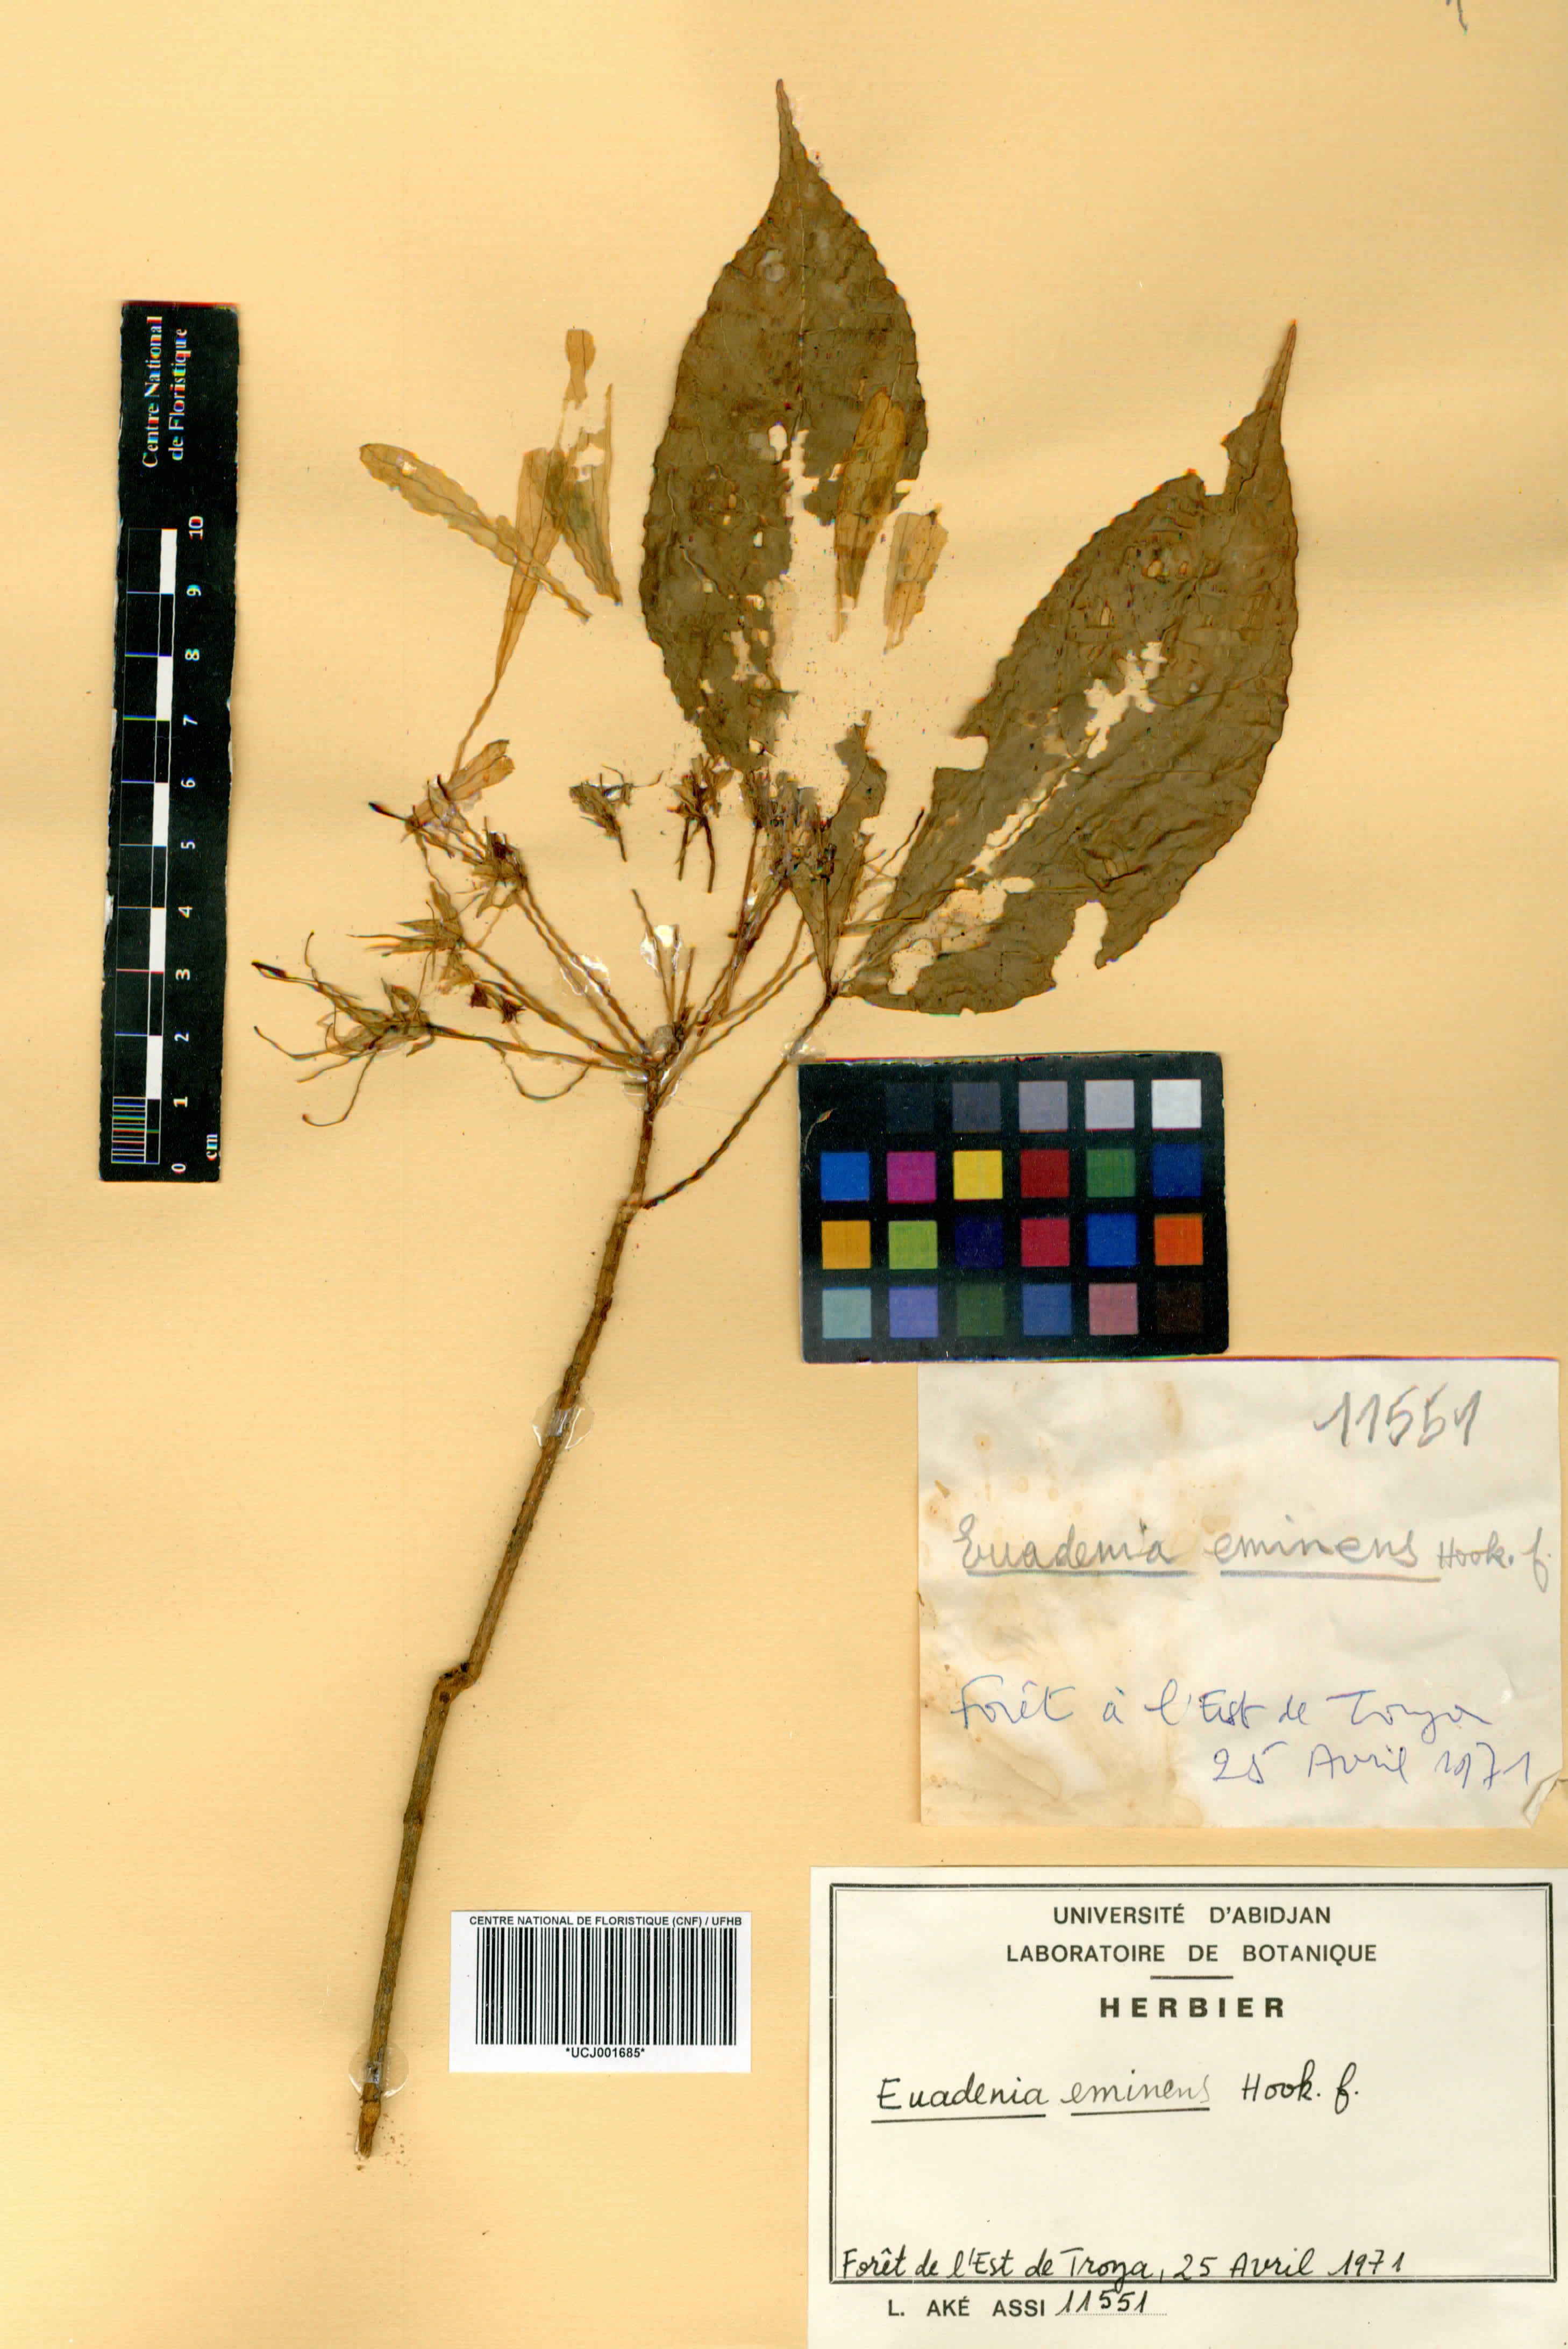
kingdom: Plantae
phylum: Tracheophyta
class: Magnoliopsida
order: Brassicales
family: Capparaceae
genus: Euadenia
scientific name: Euadenia eminens
